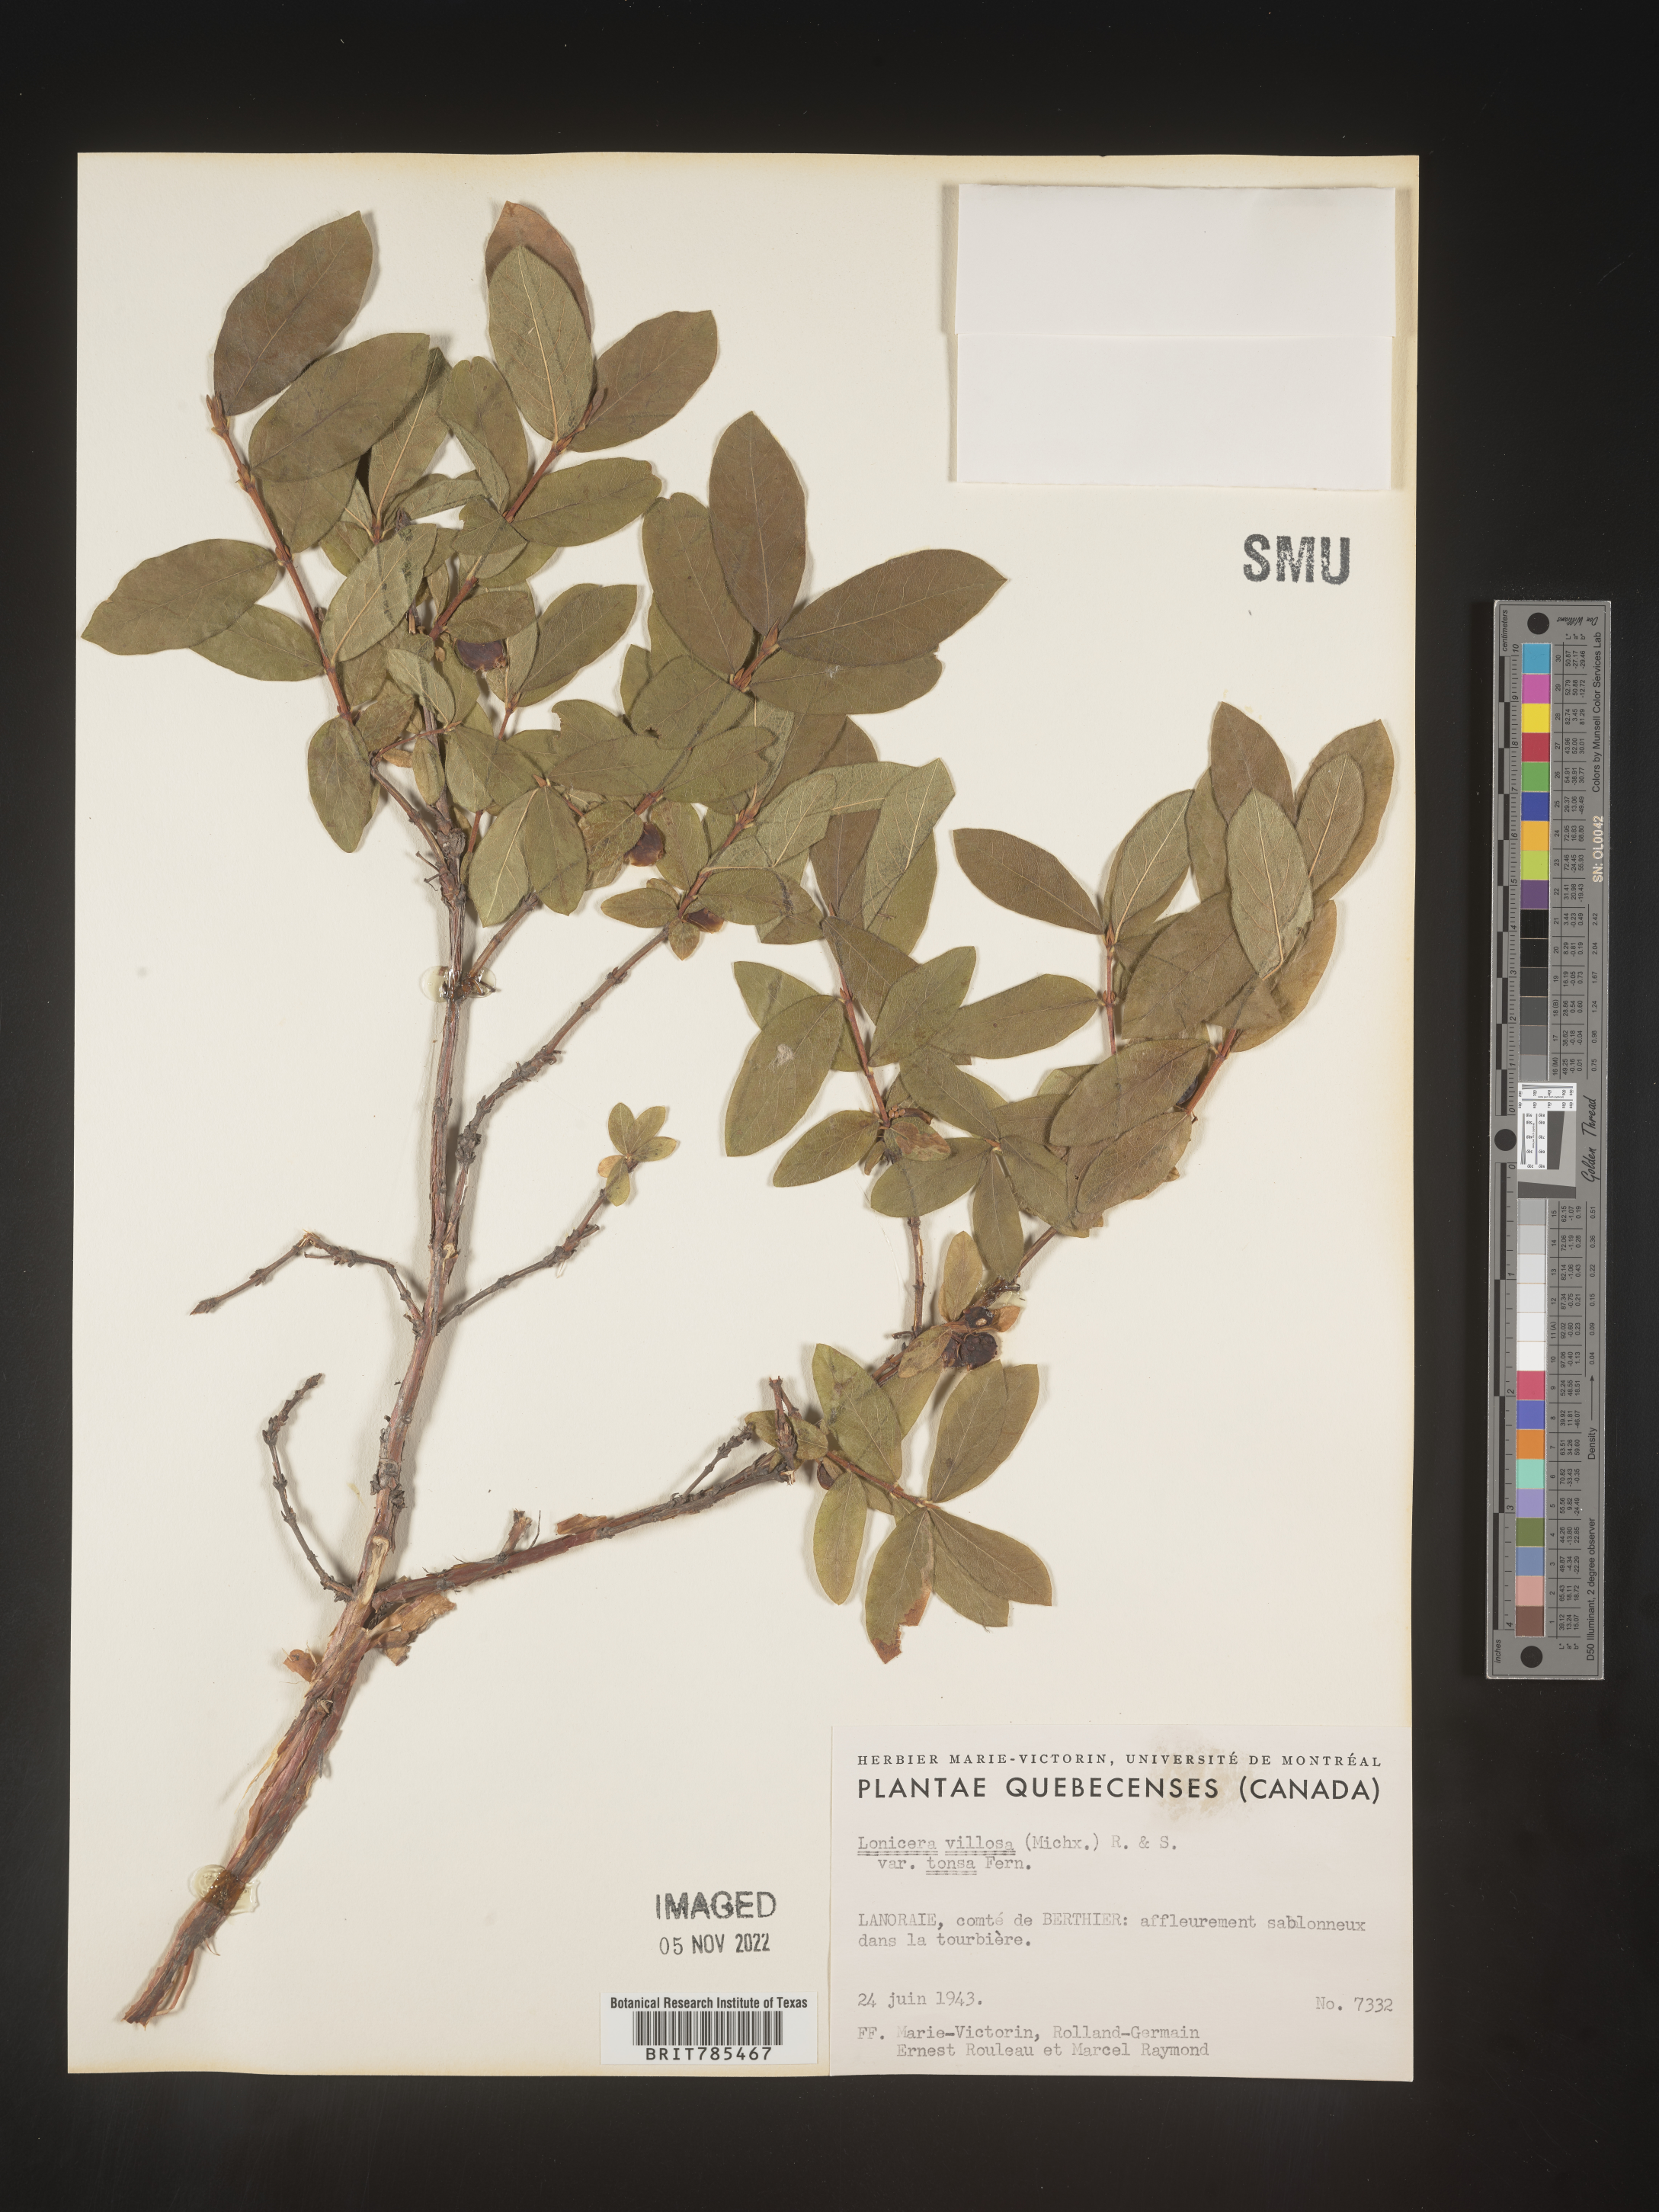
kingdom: Plantae
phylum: Tracheophyta
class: Magnoliopsida
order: Dipsacales
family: Caprifoliaceae
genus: Lonicera
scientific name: Lonicera
